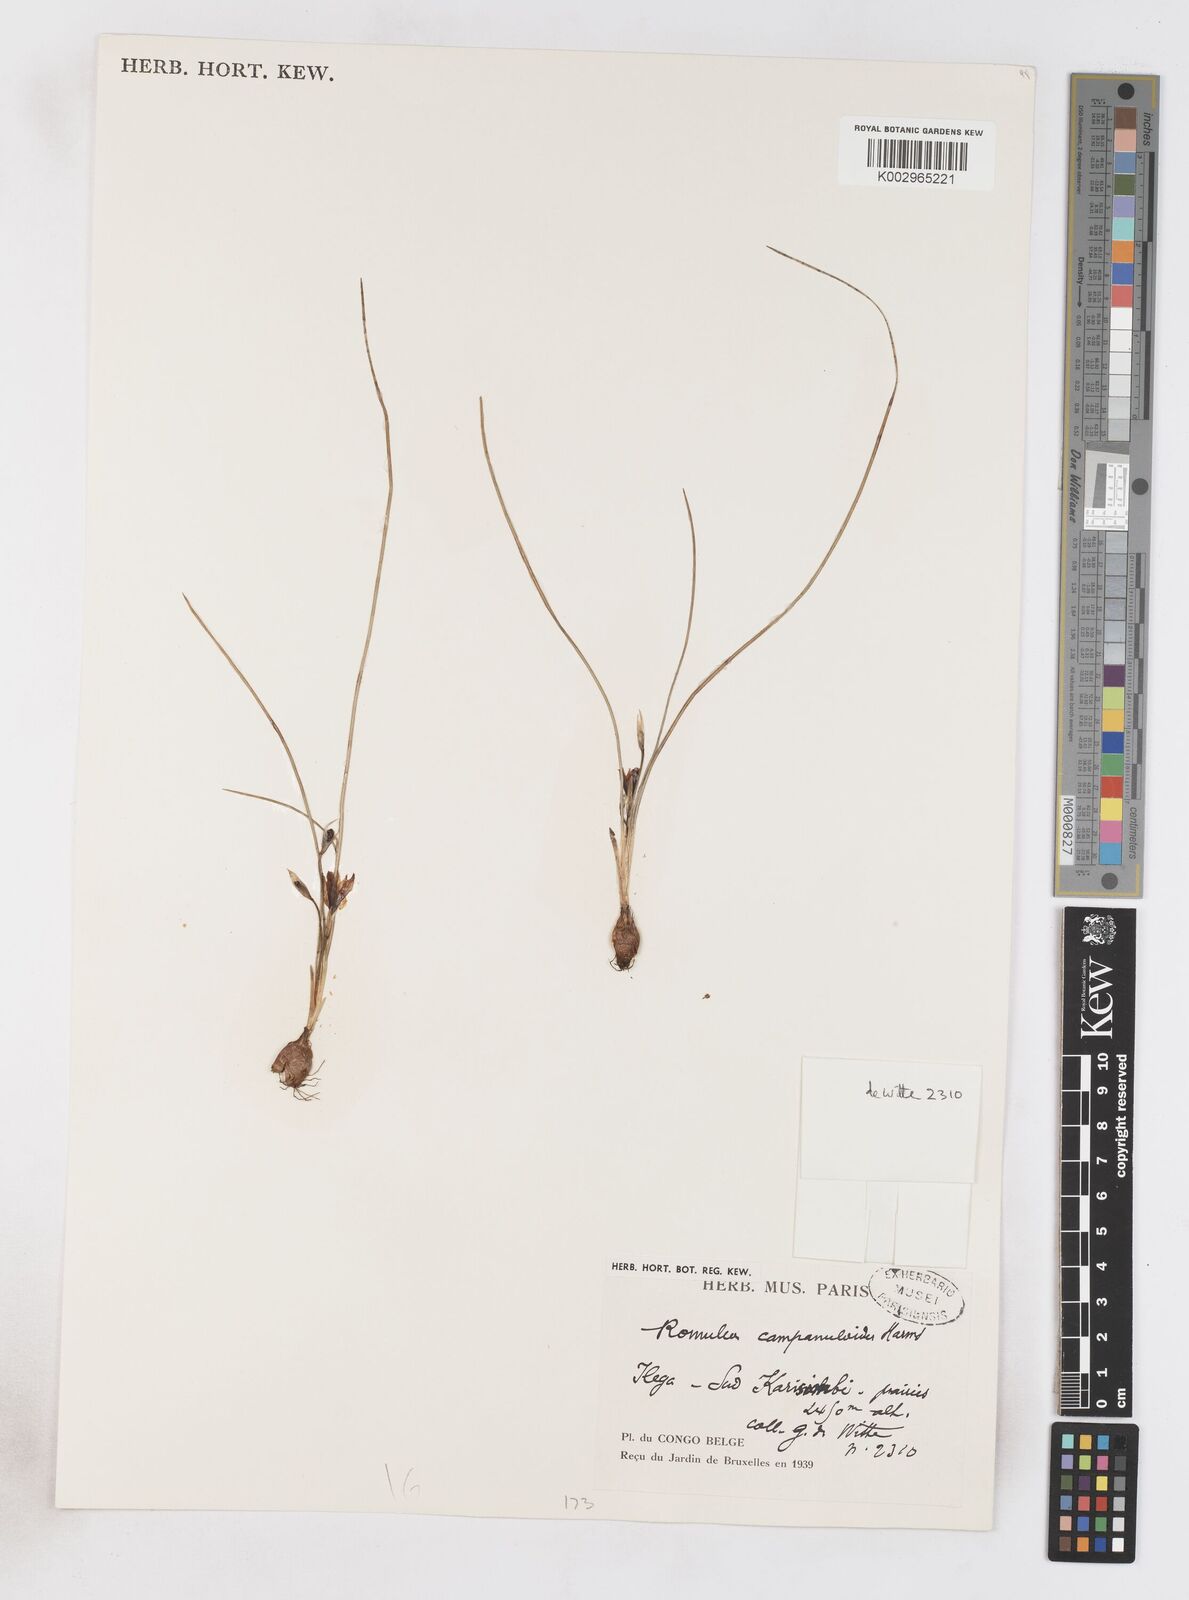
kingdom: Plantae
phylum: Tracheophyta
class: Liliopsida
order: Asparagales
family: Iridaceae
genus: Romulea
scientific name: Romulea camerooniana
